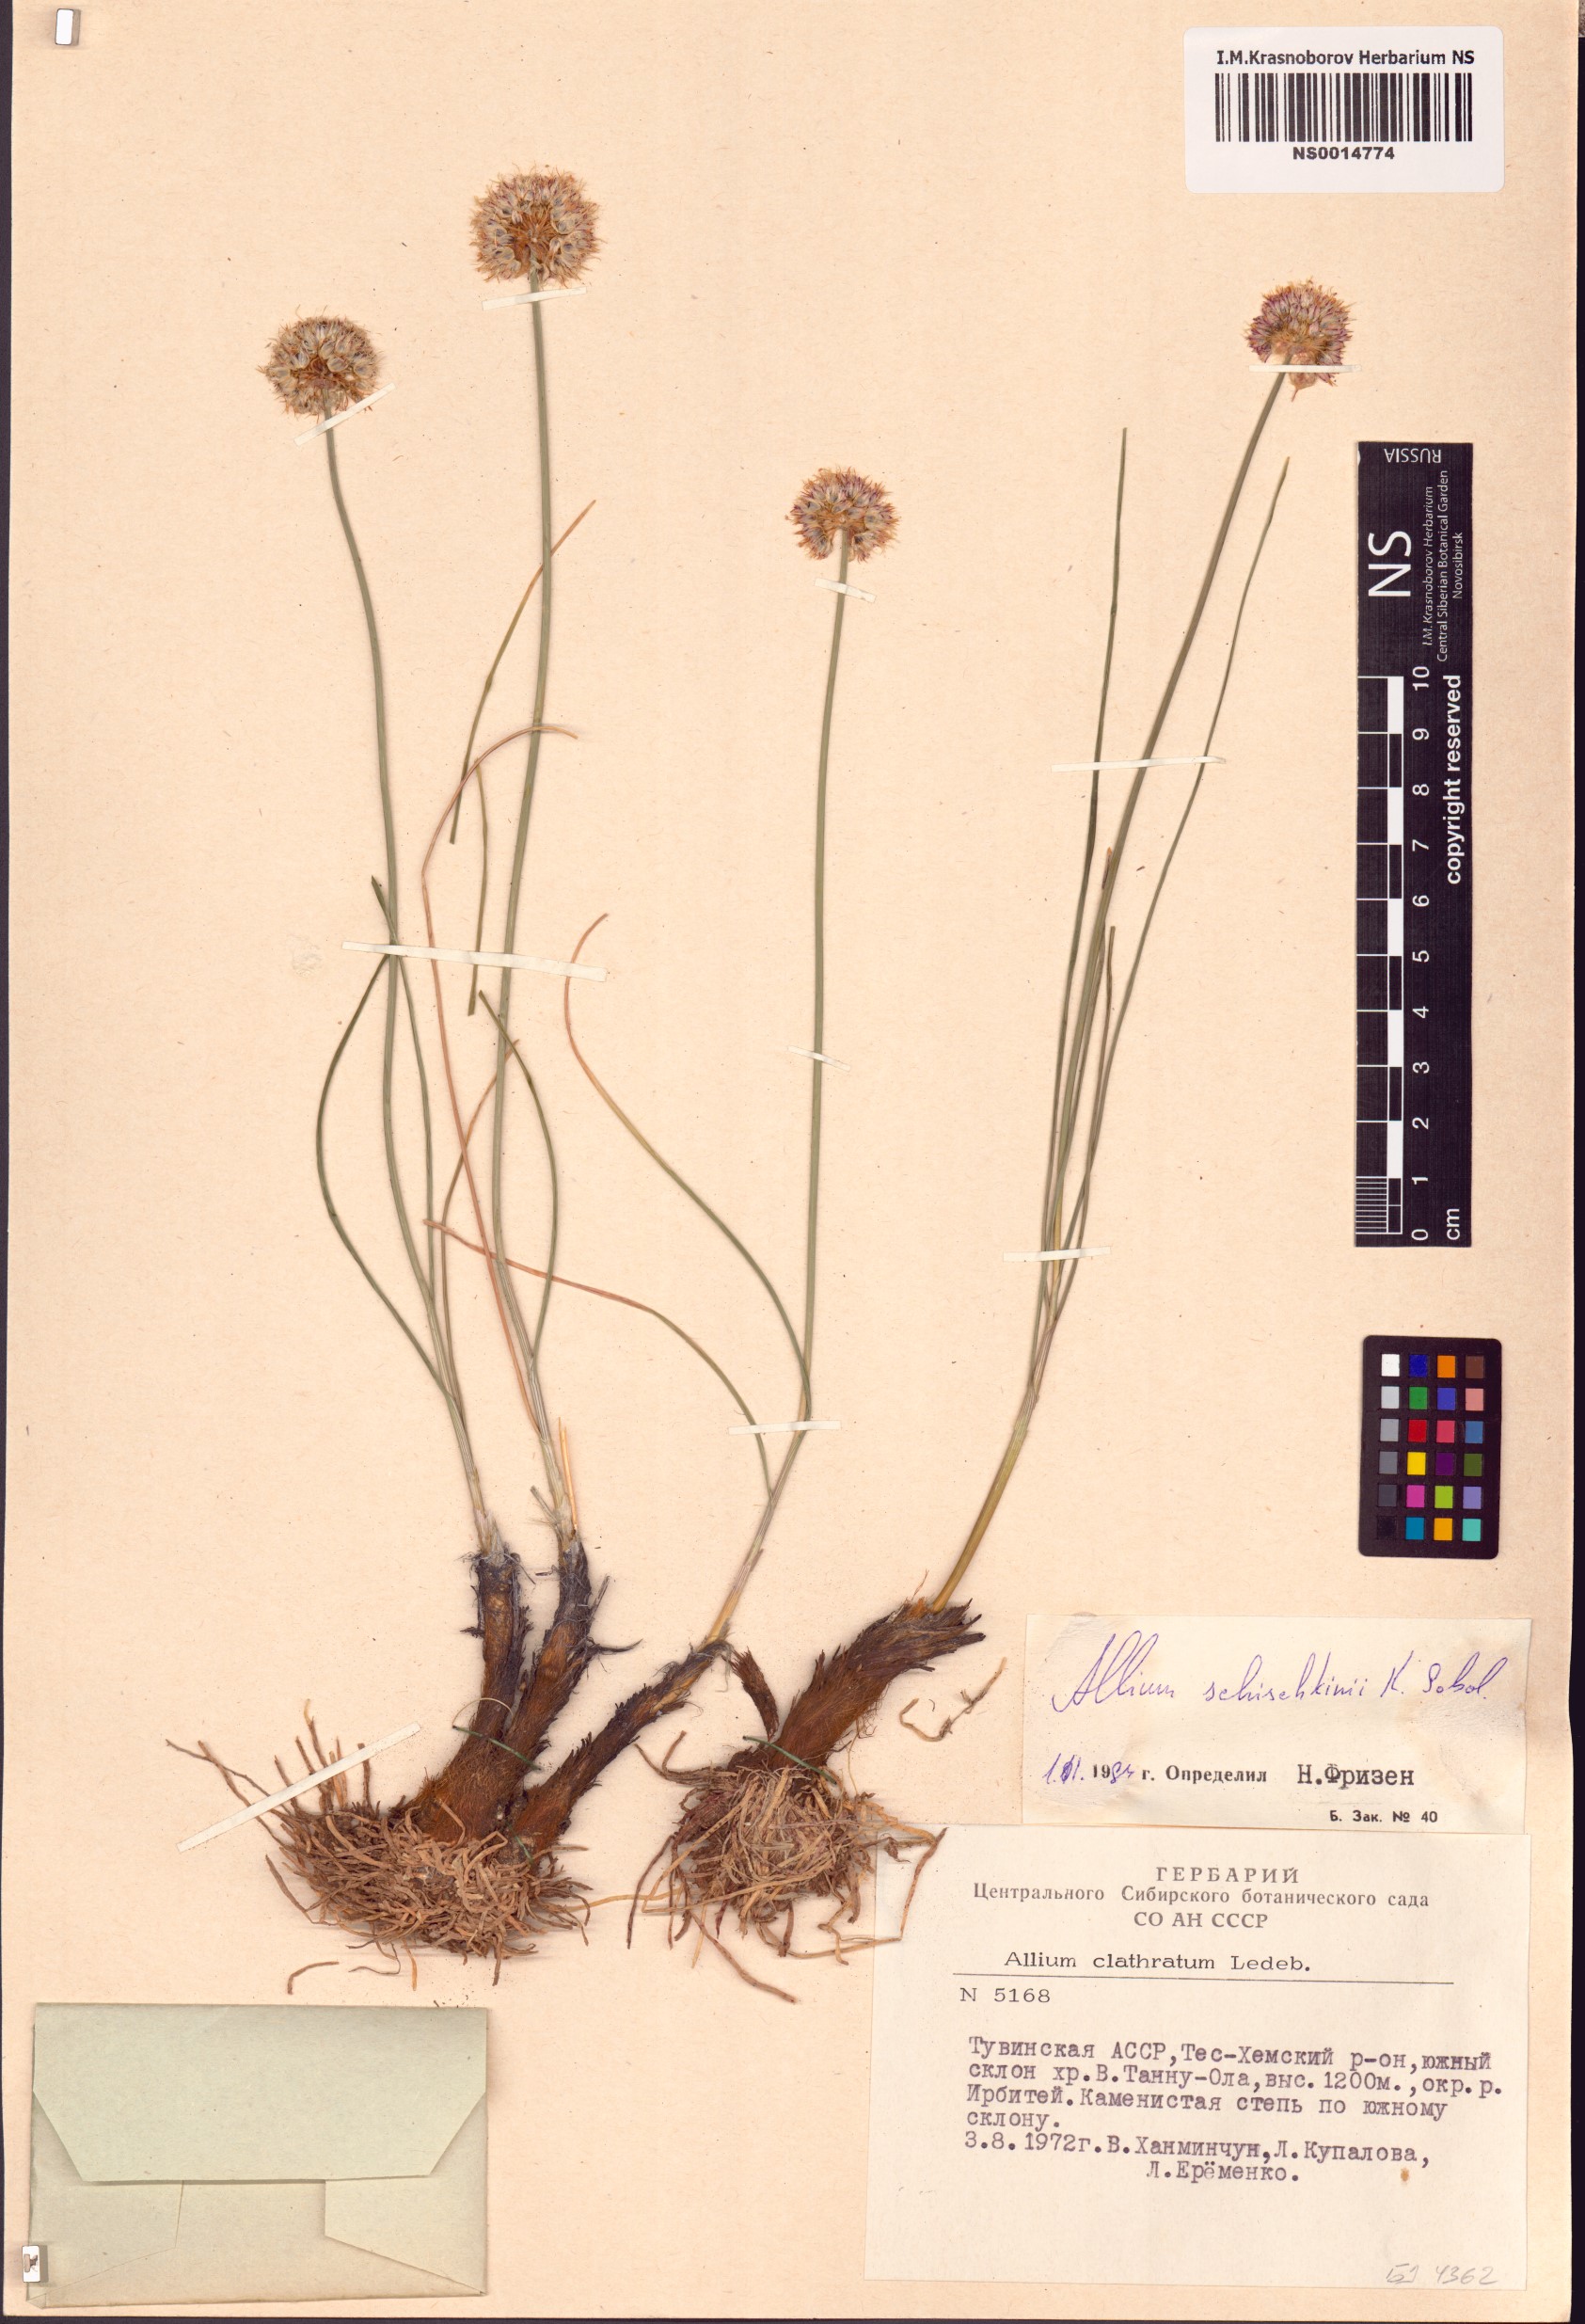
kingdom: Plantae
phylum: Tracheophyta
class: Liliopsida
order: Asparagales
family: Amaryllidaceae
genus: Allium
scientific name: Allium schischkinii
